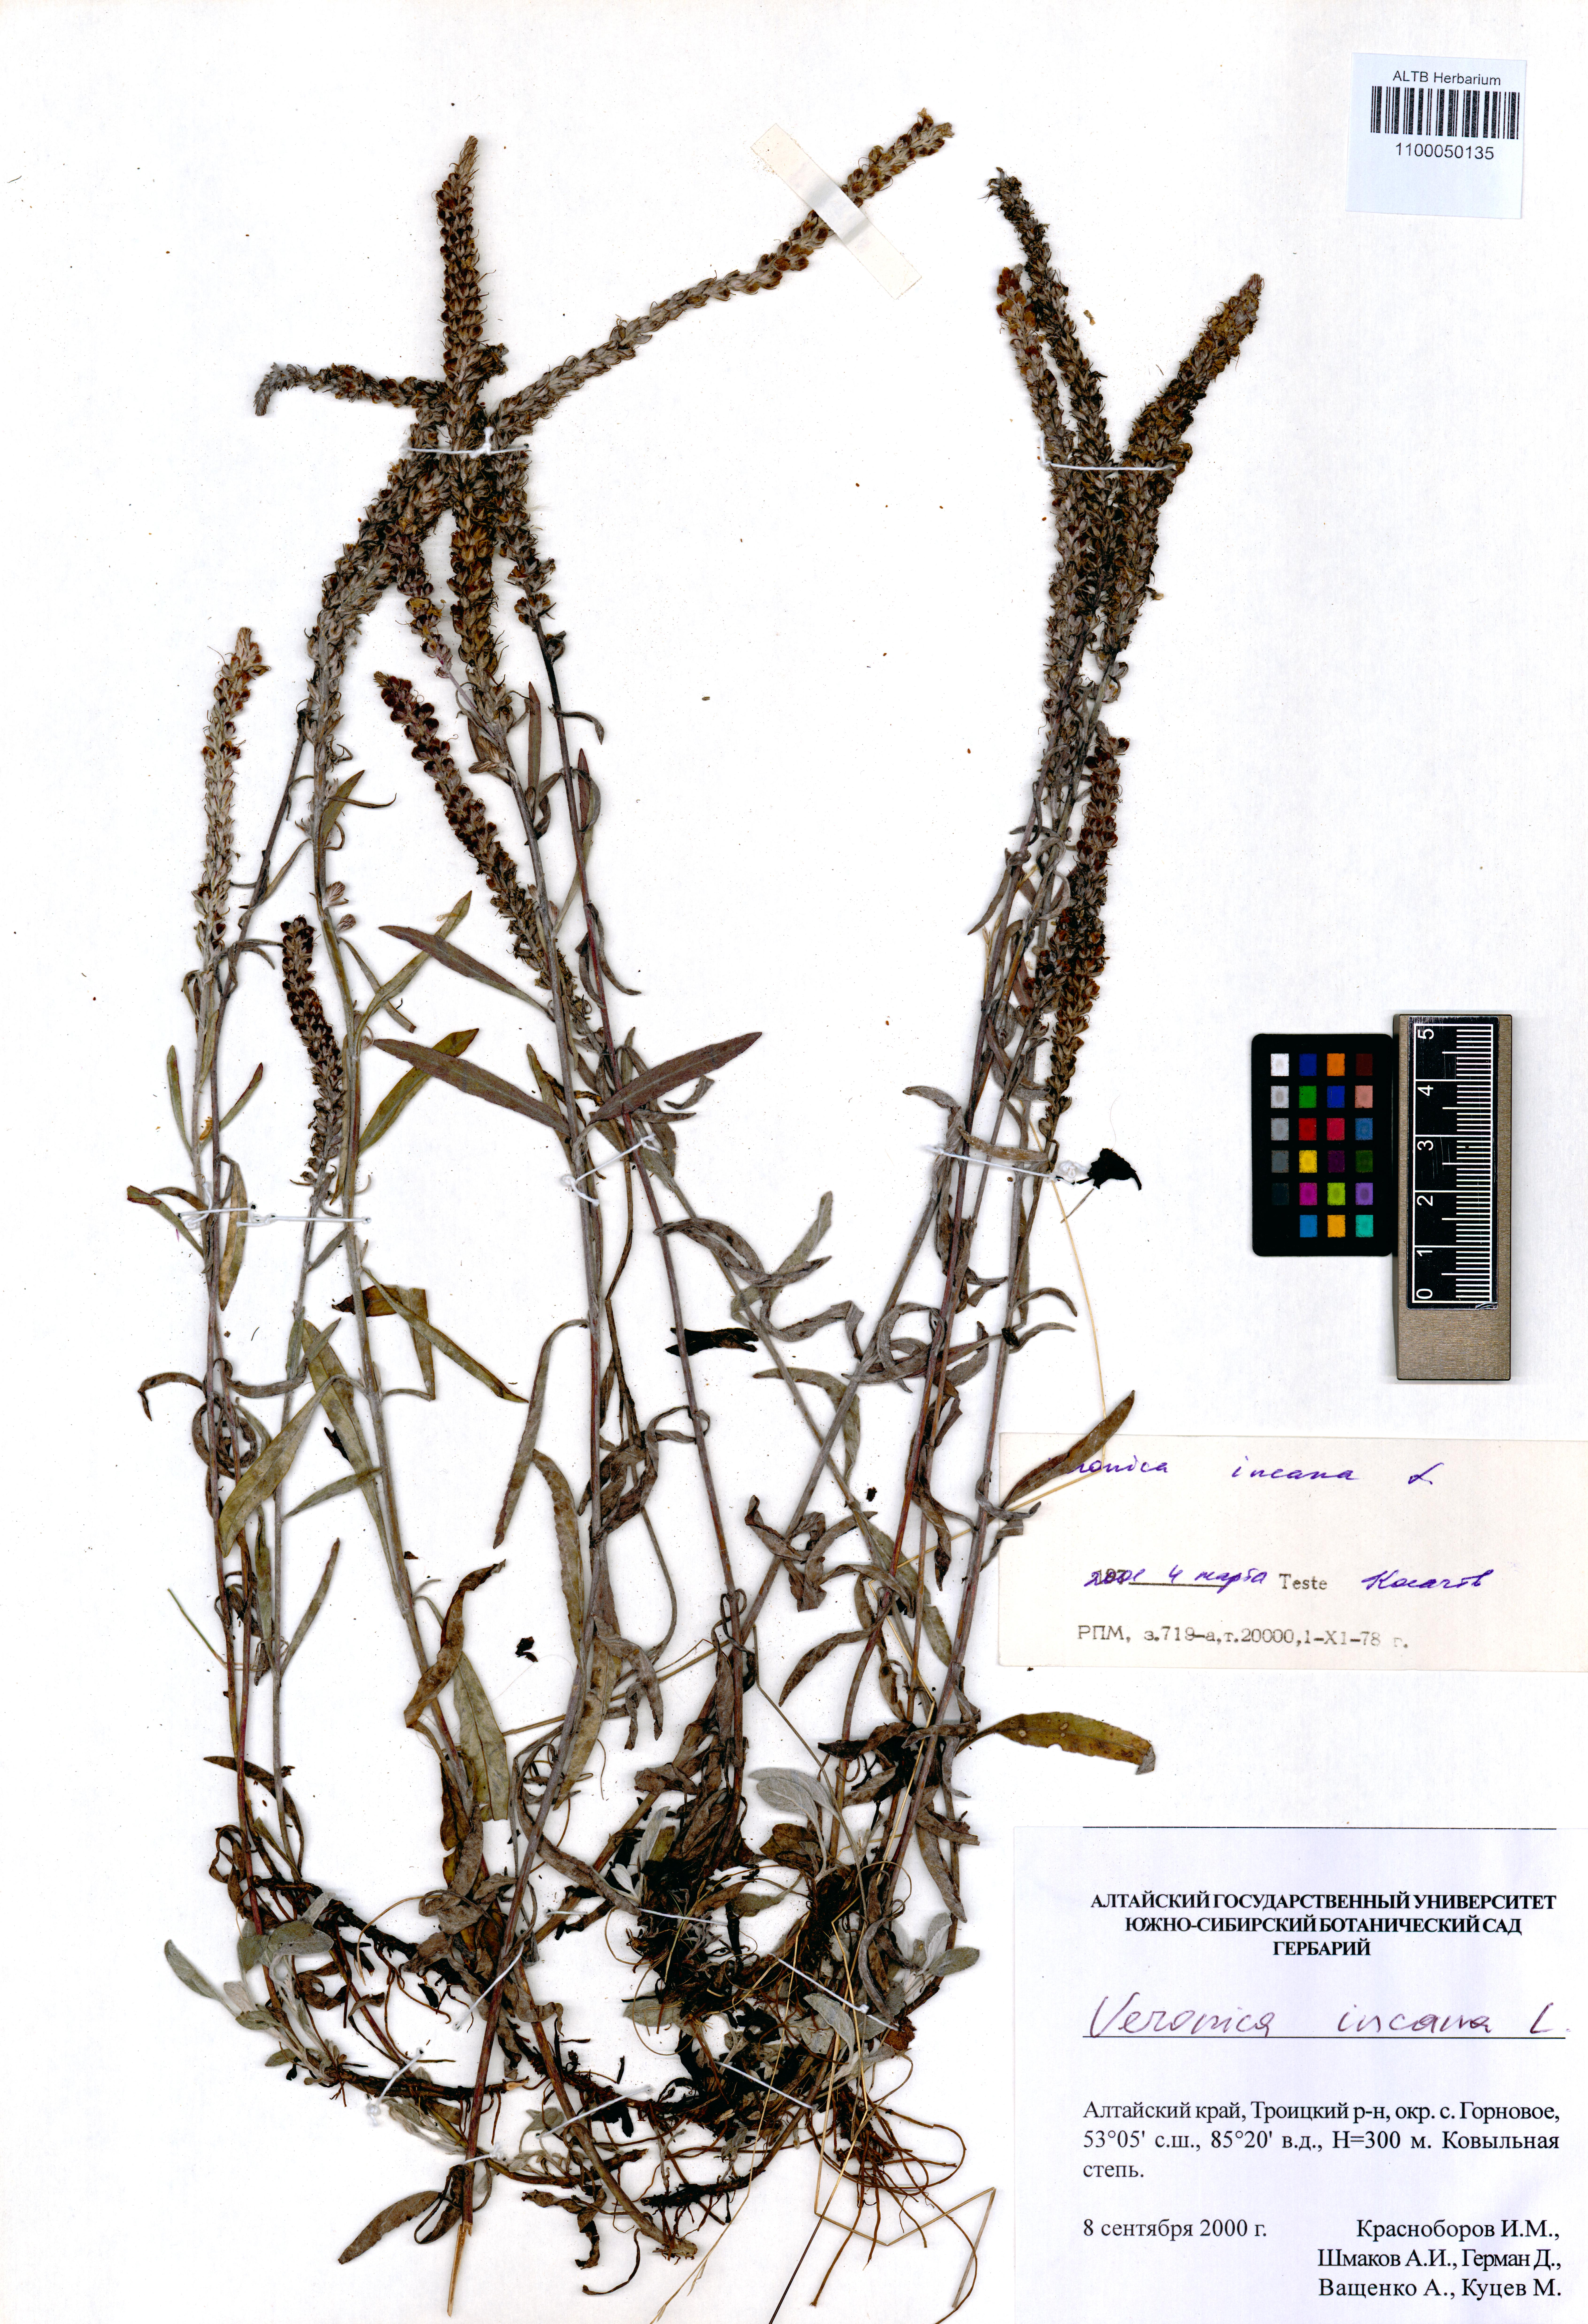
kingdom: Plantae
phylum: Tracheophyta
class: Magnoliopsida
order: Lamiales
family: Plantaginaceae
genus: Veronica
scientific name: Veronica incana
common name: Silver speedwell
